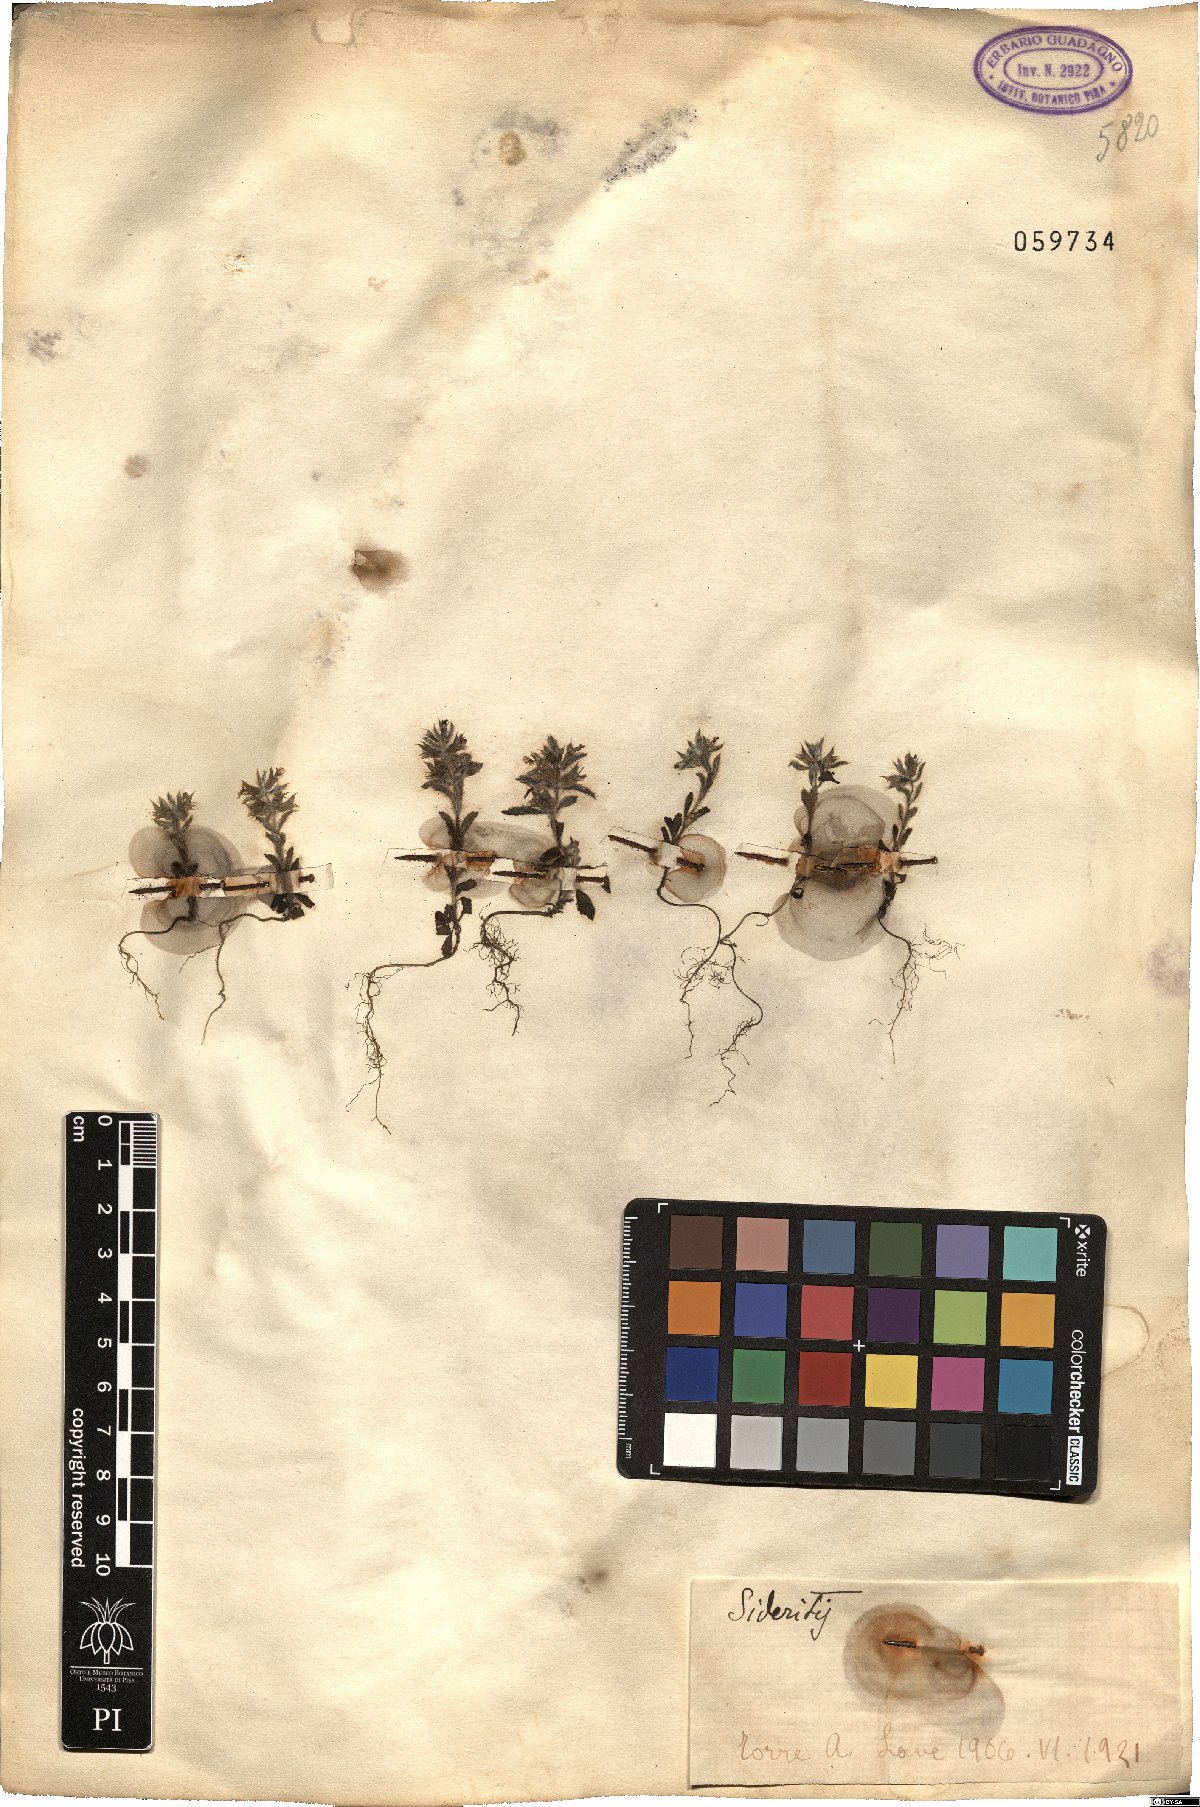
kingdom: Plantae
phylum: Tracheophyta
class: Magnoliopsida
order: Lamiales
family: Lamiaceae
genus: Sideritis
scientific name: Sideritis
